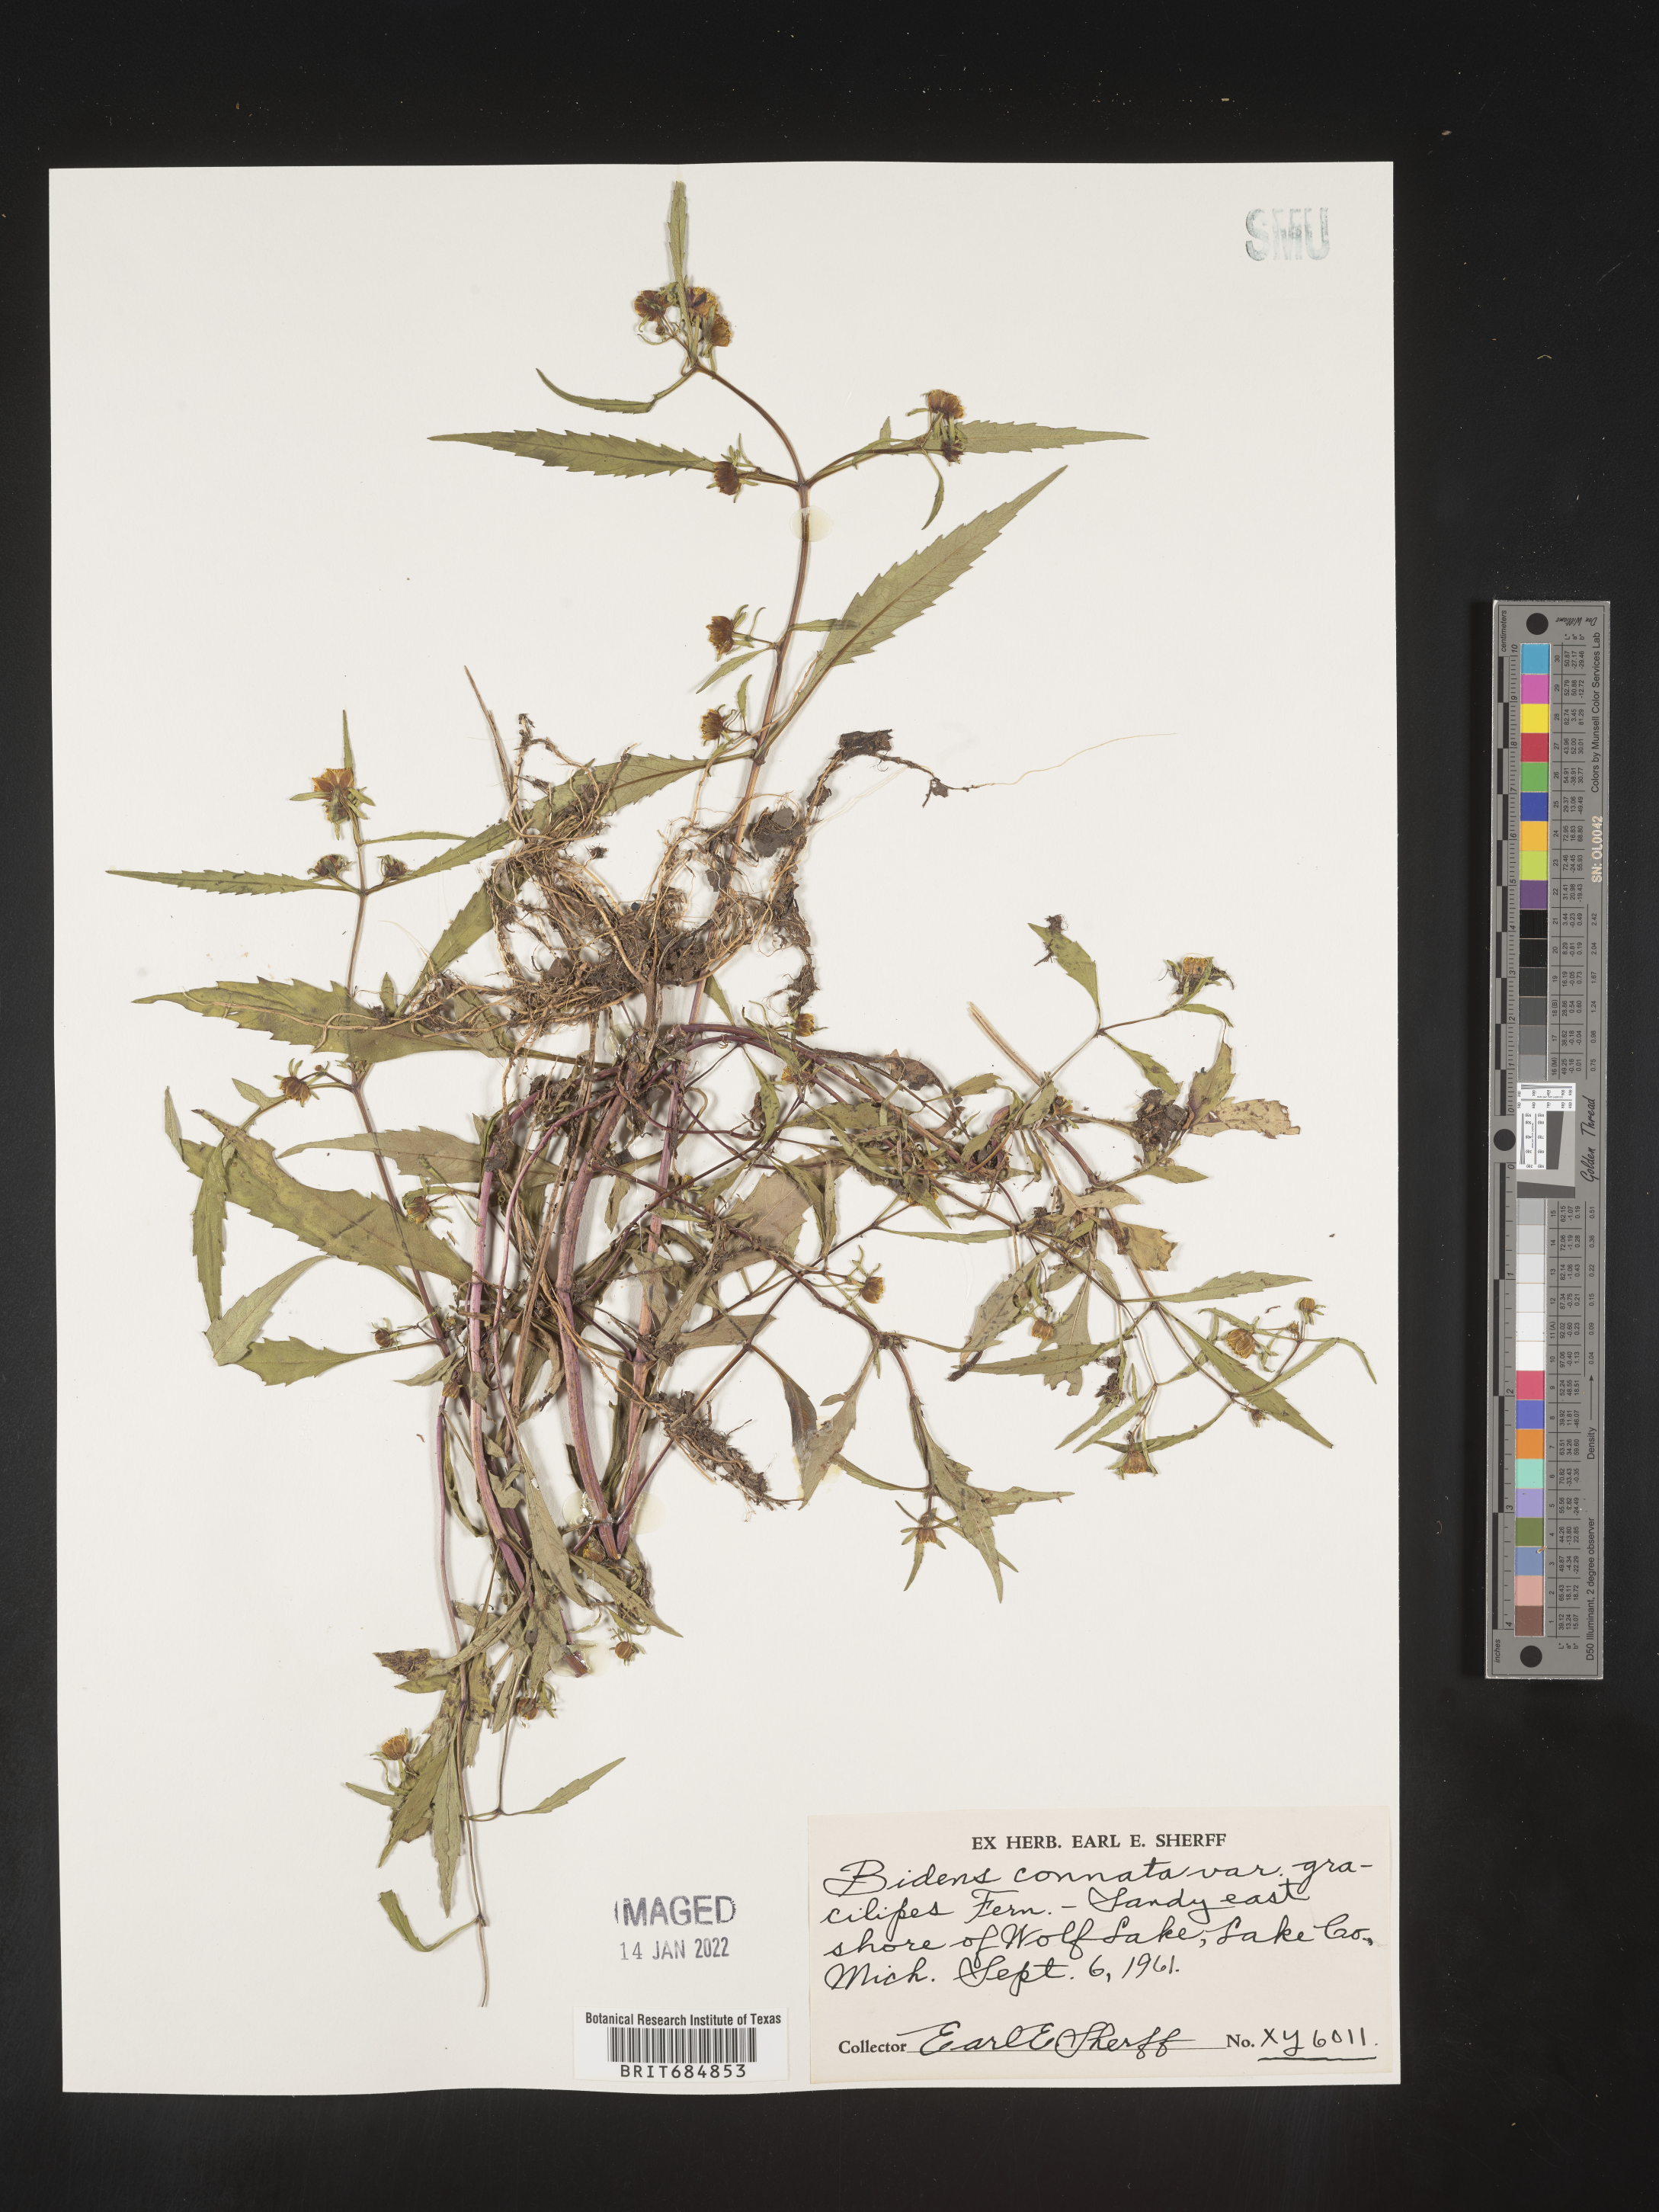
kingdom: Plantae
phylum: Tracheophyta
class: Magnoliopsida
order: Asterales
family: Asteraceae
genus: Bidens
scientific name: Bidens tripartita
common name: Trifid bur-marigold
